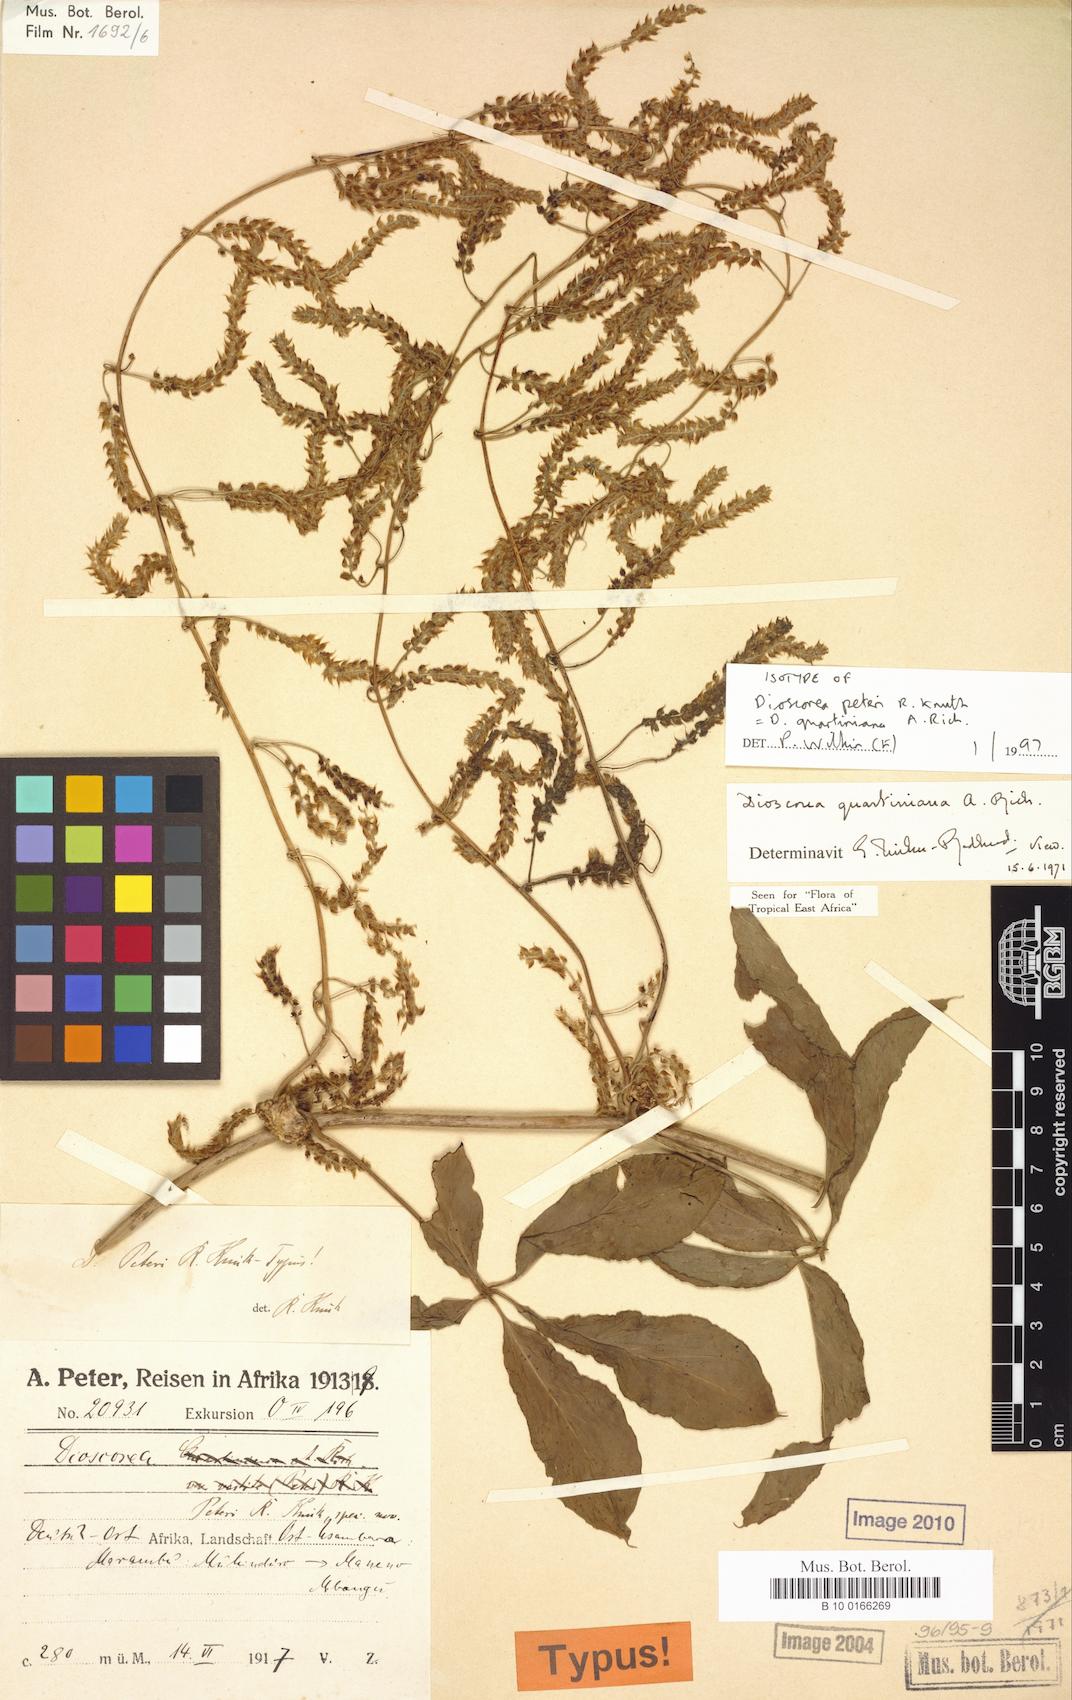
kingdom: Plantae
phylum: Tracheophyta
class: Liliopsida
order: Dioscoreales
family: Dioscoreaceae
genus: Dioscorea
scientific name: Dioscorea quartiniana
